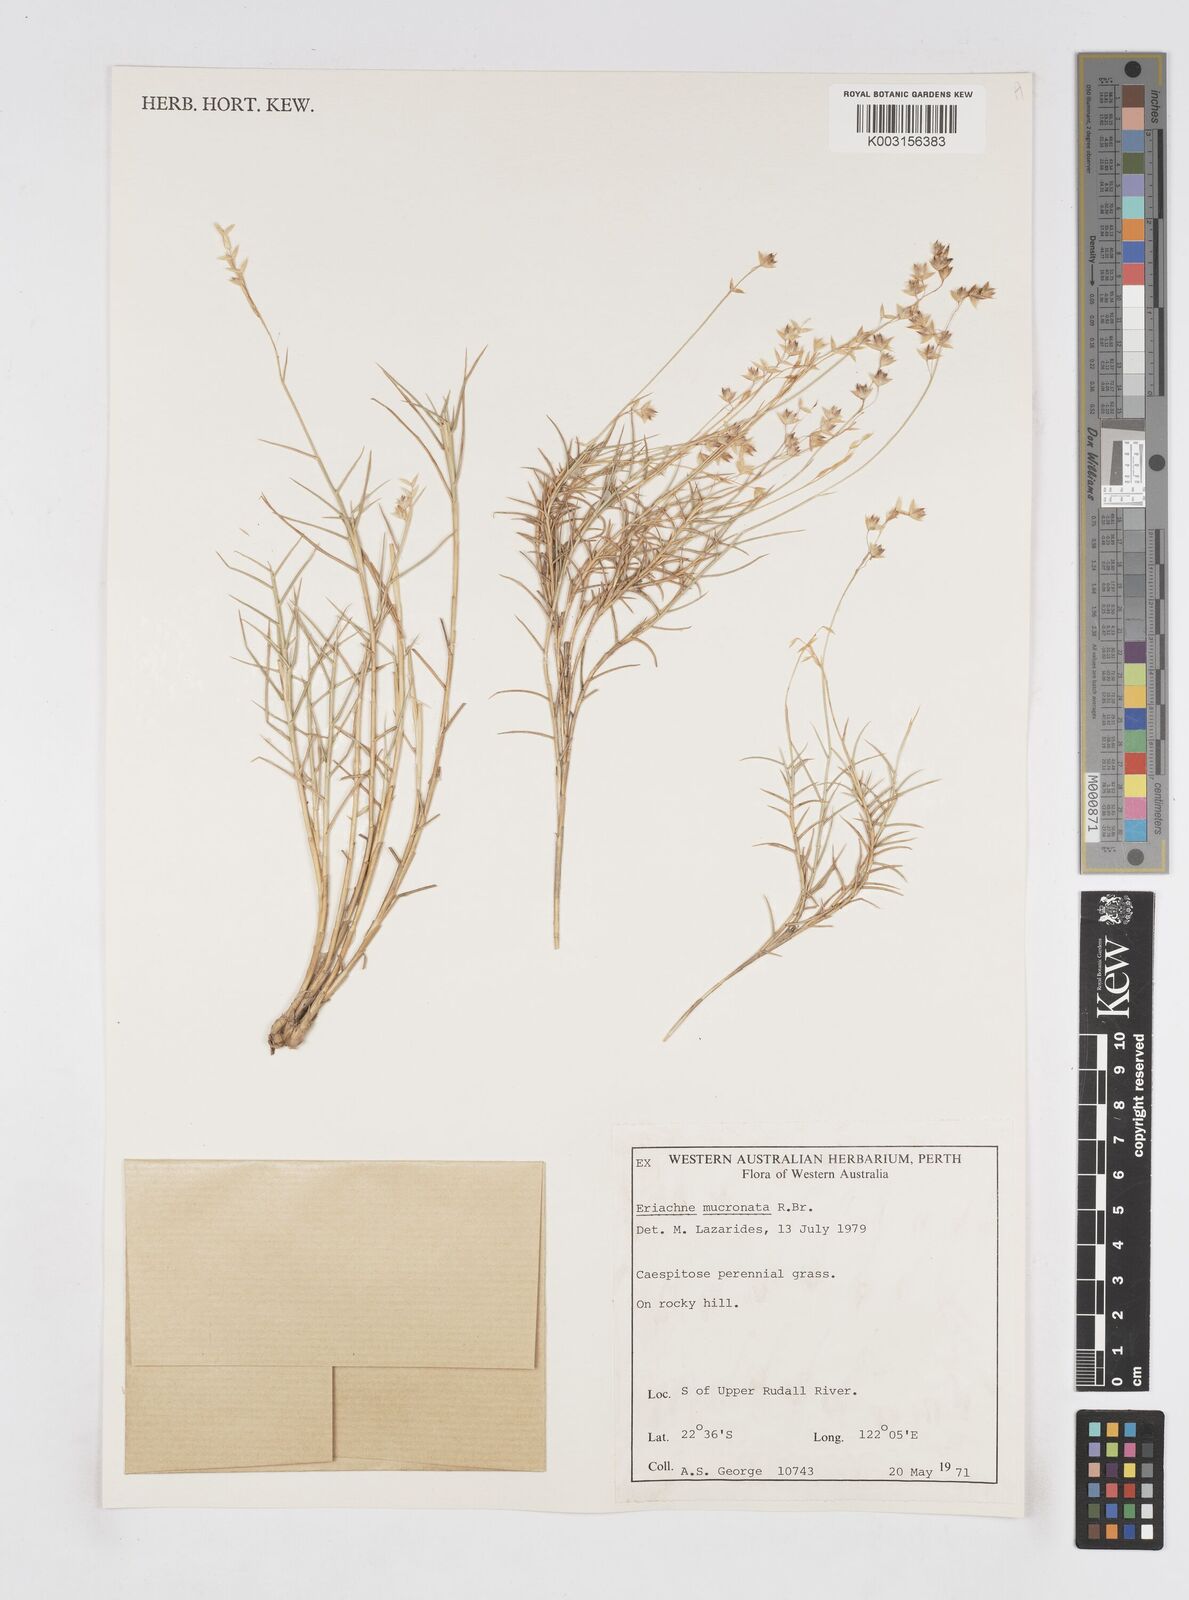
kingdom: Plantae
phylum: Tracheophyta
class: Liliopsida
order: Poales
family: Poaceae
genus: Eriachne
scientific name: Eriachne mucronata
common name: Mountain wanderrie grass
